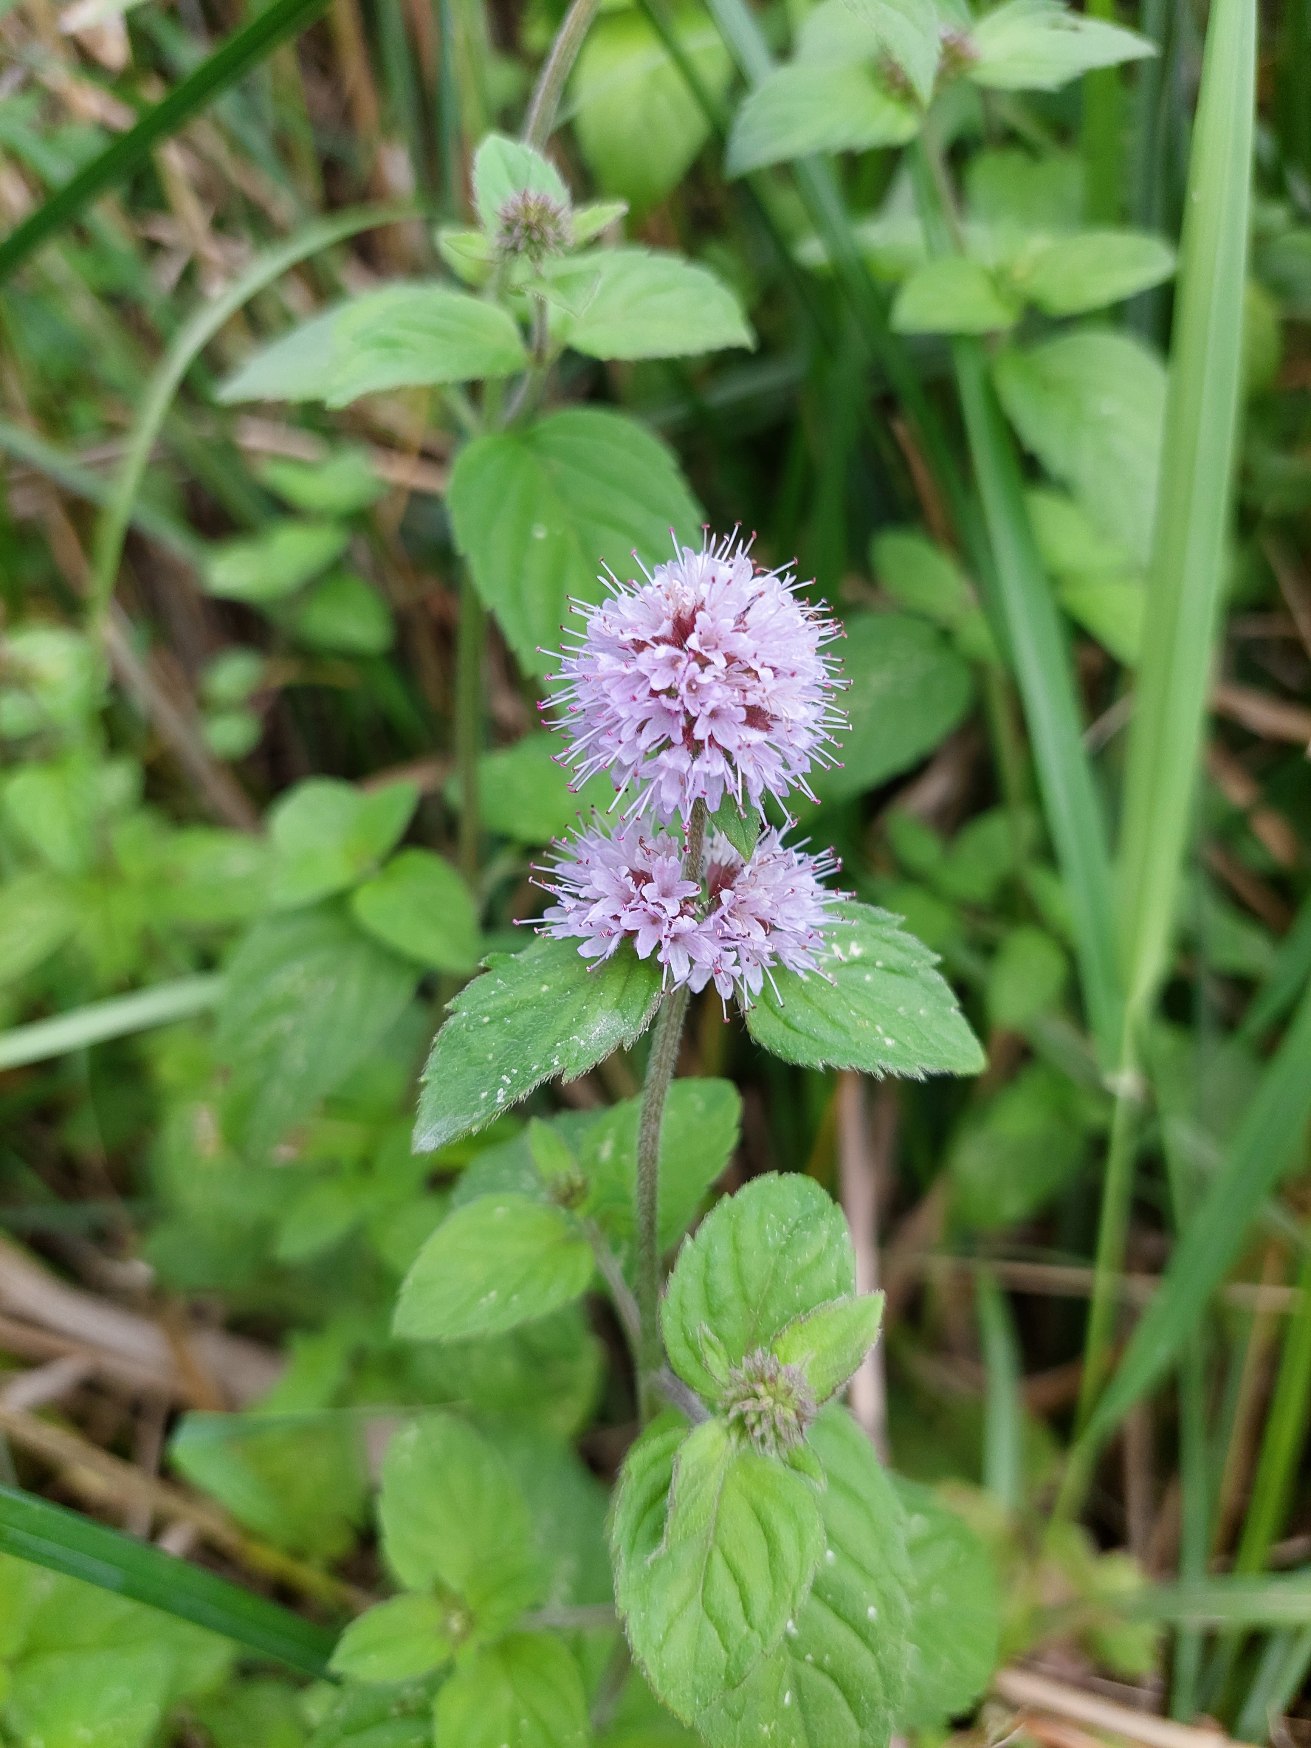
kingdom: Plantae
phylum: Tracheophyta
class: Magnoliopsida
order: Lamiales
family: Lamiaceae
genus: Mentha
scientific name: Mentha aquatica
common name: Vand-mynte
